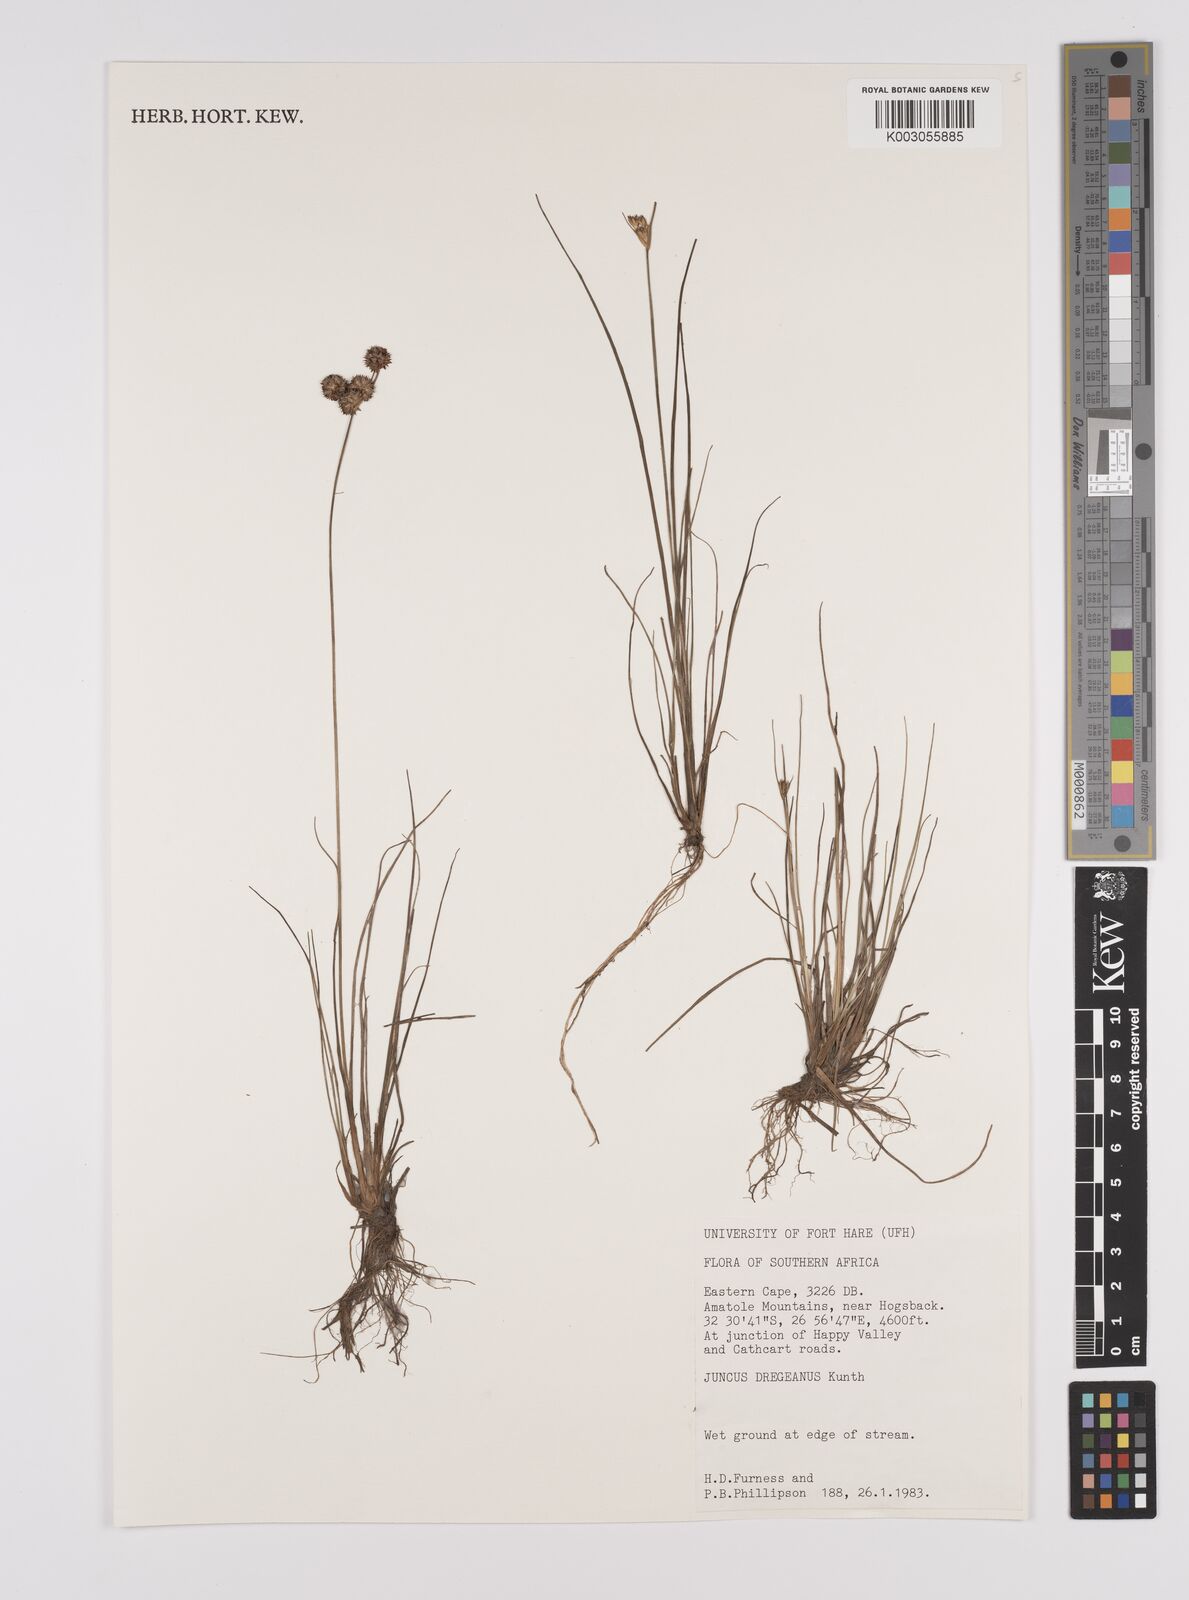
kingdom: Plantae
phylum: Tracheophyta
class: Liliopsida
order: Poales
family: Juncaceae
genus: Juncus
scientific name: Juncus dregeanus
